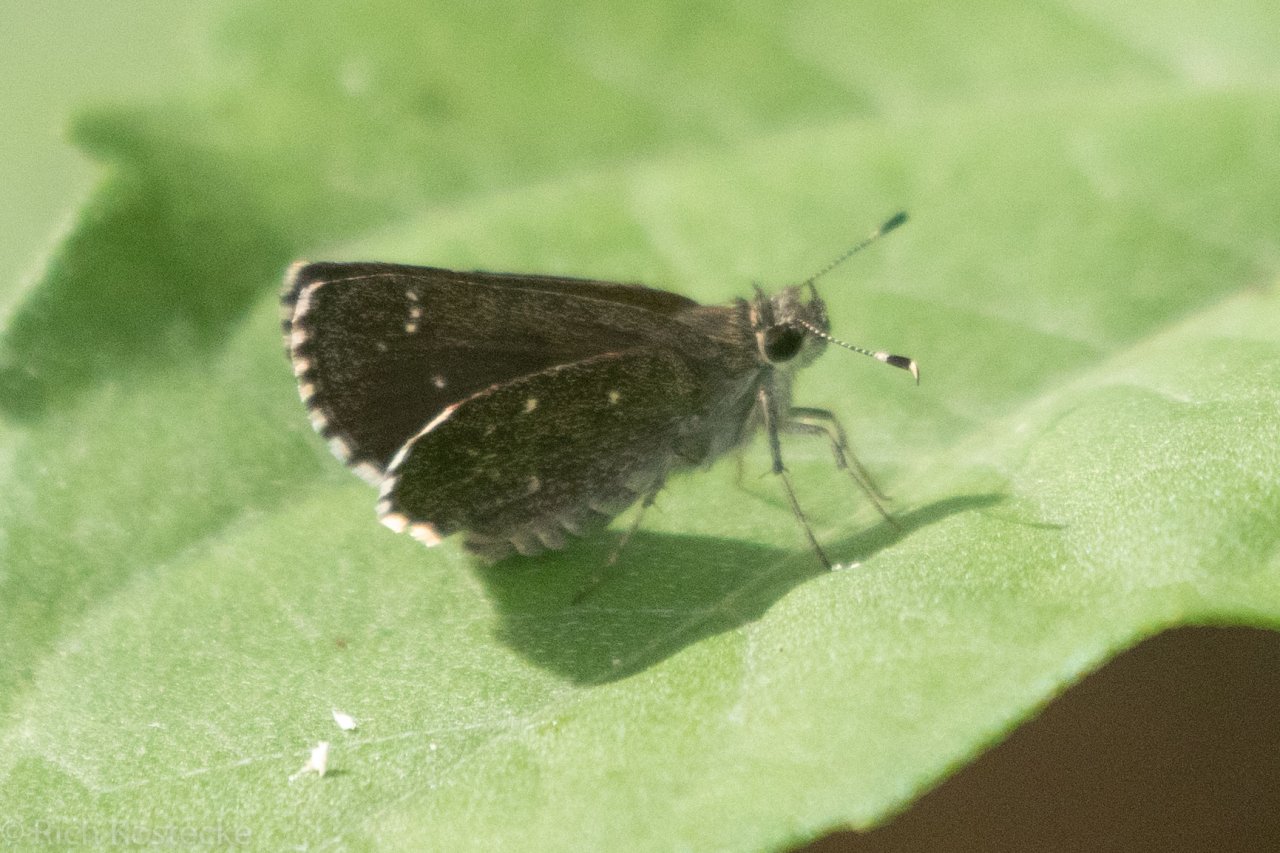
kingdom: Animalia
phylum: Arthropoda
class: Insecta
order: Lepidoptera
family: Hesperiidae
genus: Mastor
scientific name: Mastor celia
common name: Celia's Roadside-Skipper
